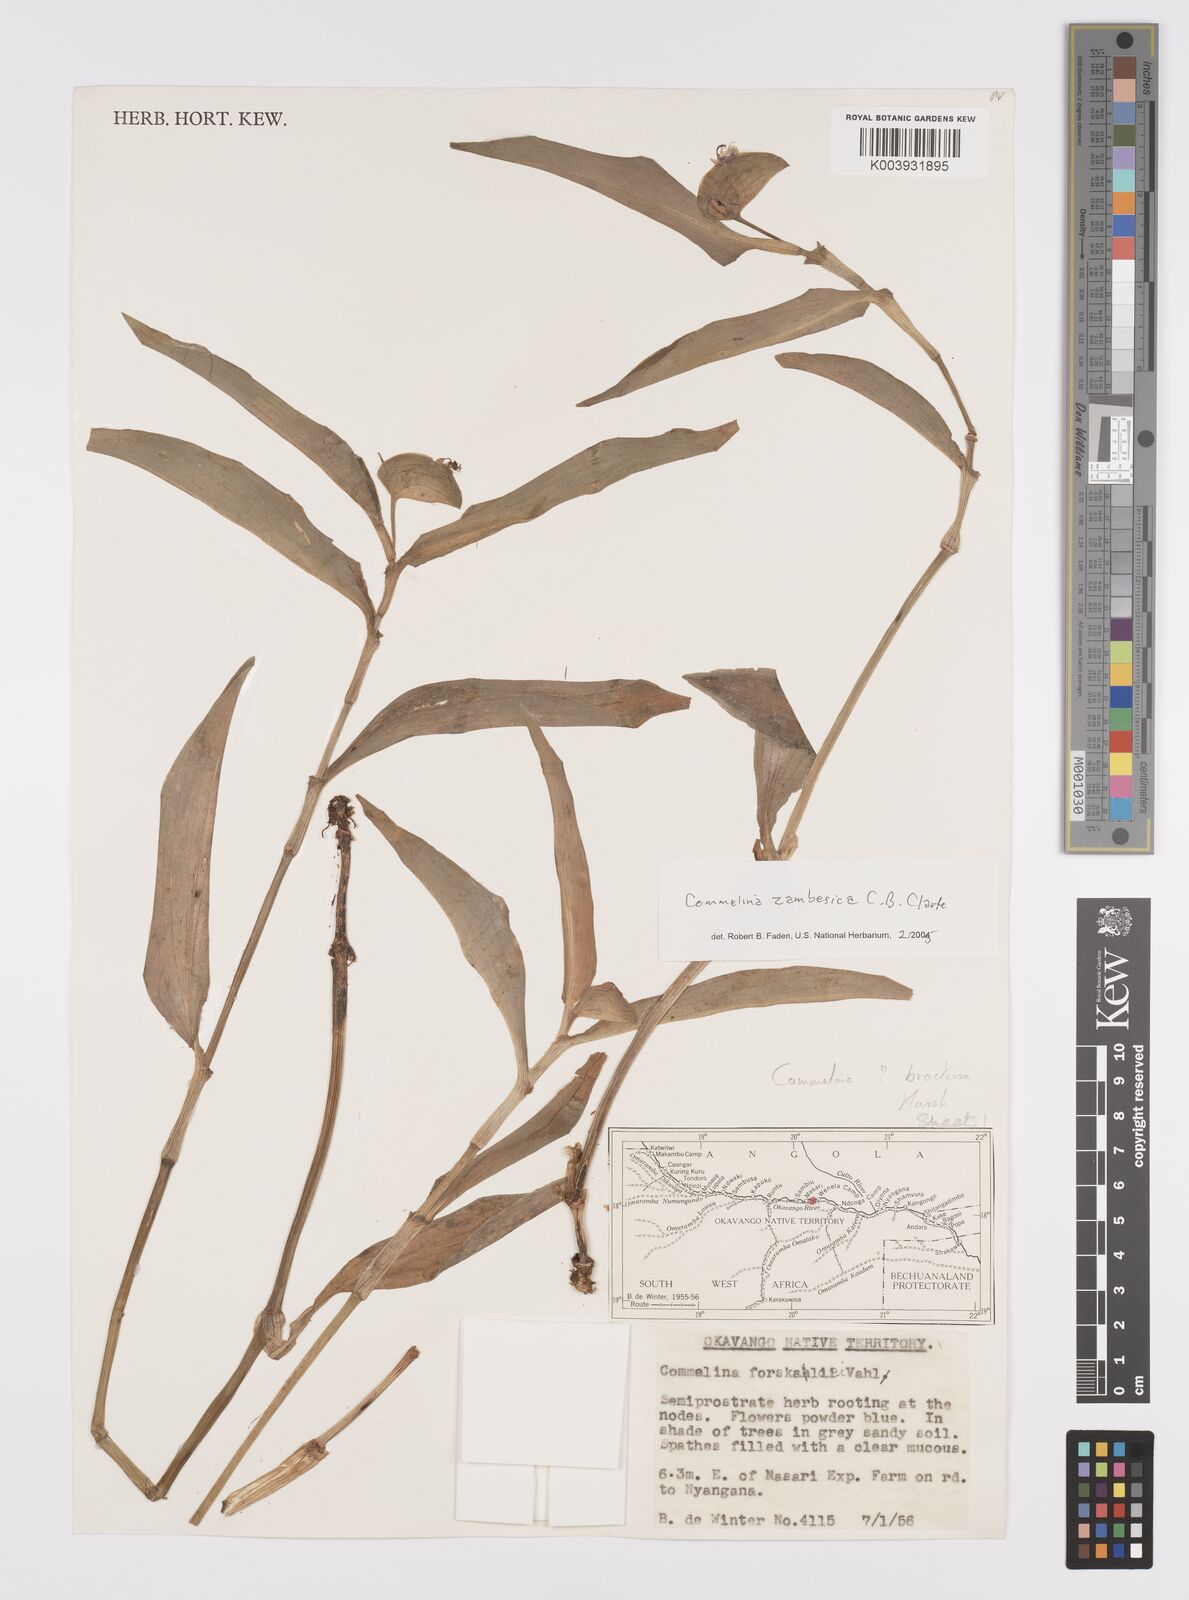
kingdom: Plantae
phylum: Tracheophyta
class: Liliopsida
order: Commelinales
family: Commelinaceae
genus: Commelina
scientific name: Commelina zambesica
